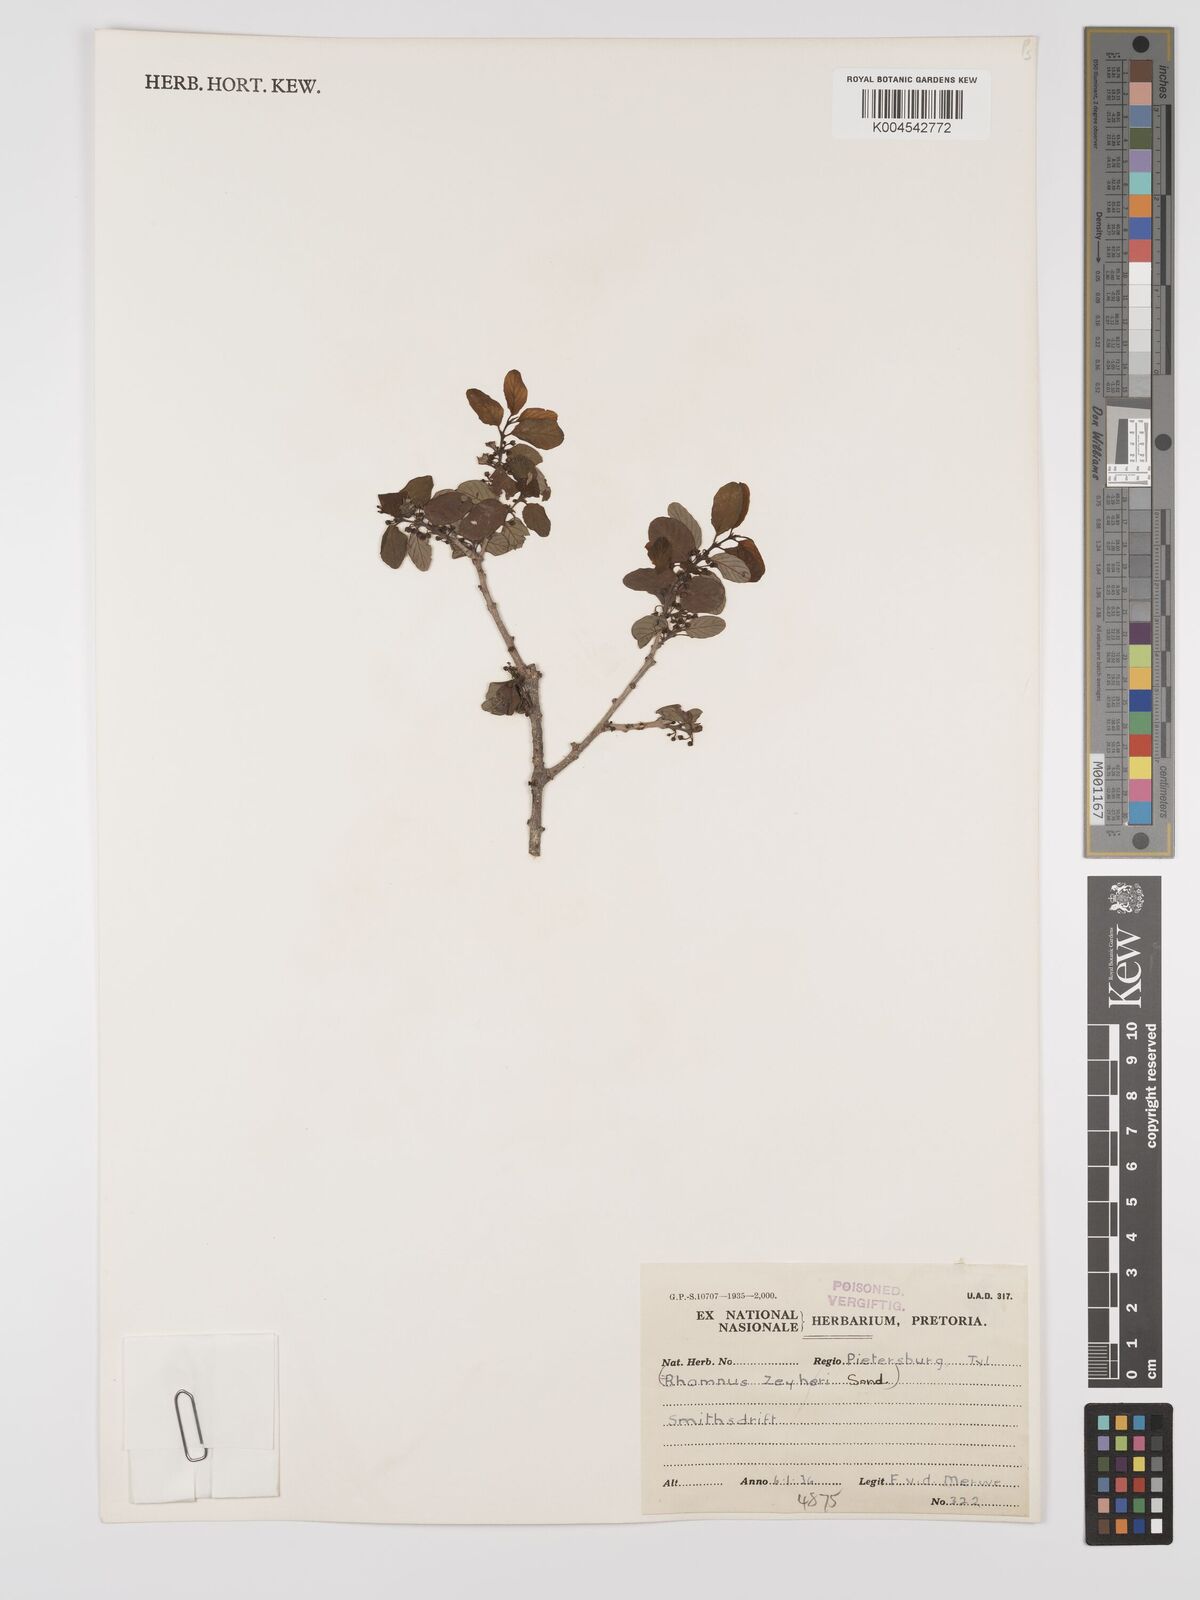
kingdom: Plantae
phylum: Tracheophyta
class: Magnoliopsida
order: Rosales
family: Rhamnaceae
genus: Phyllogeiton
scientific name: Phyllogeiton zeyheri
